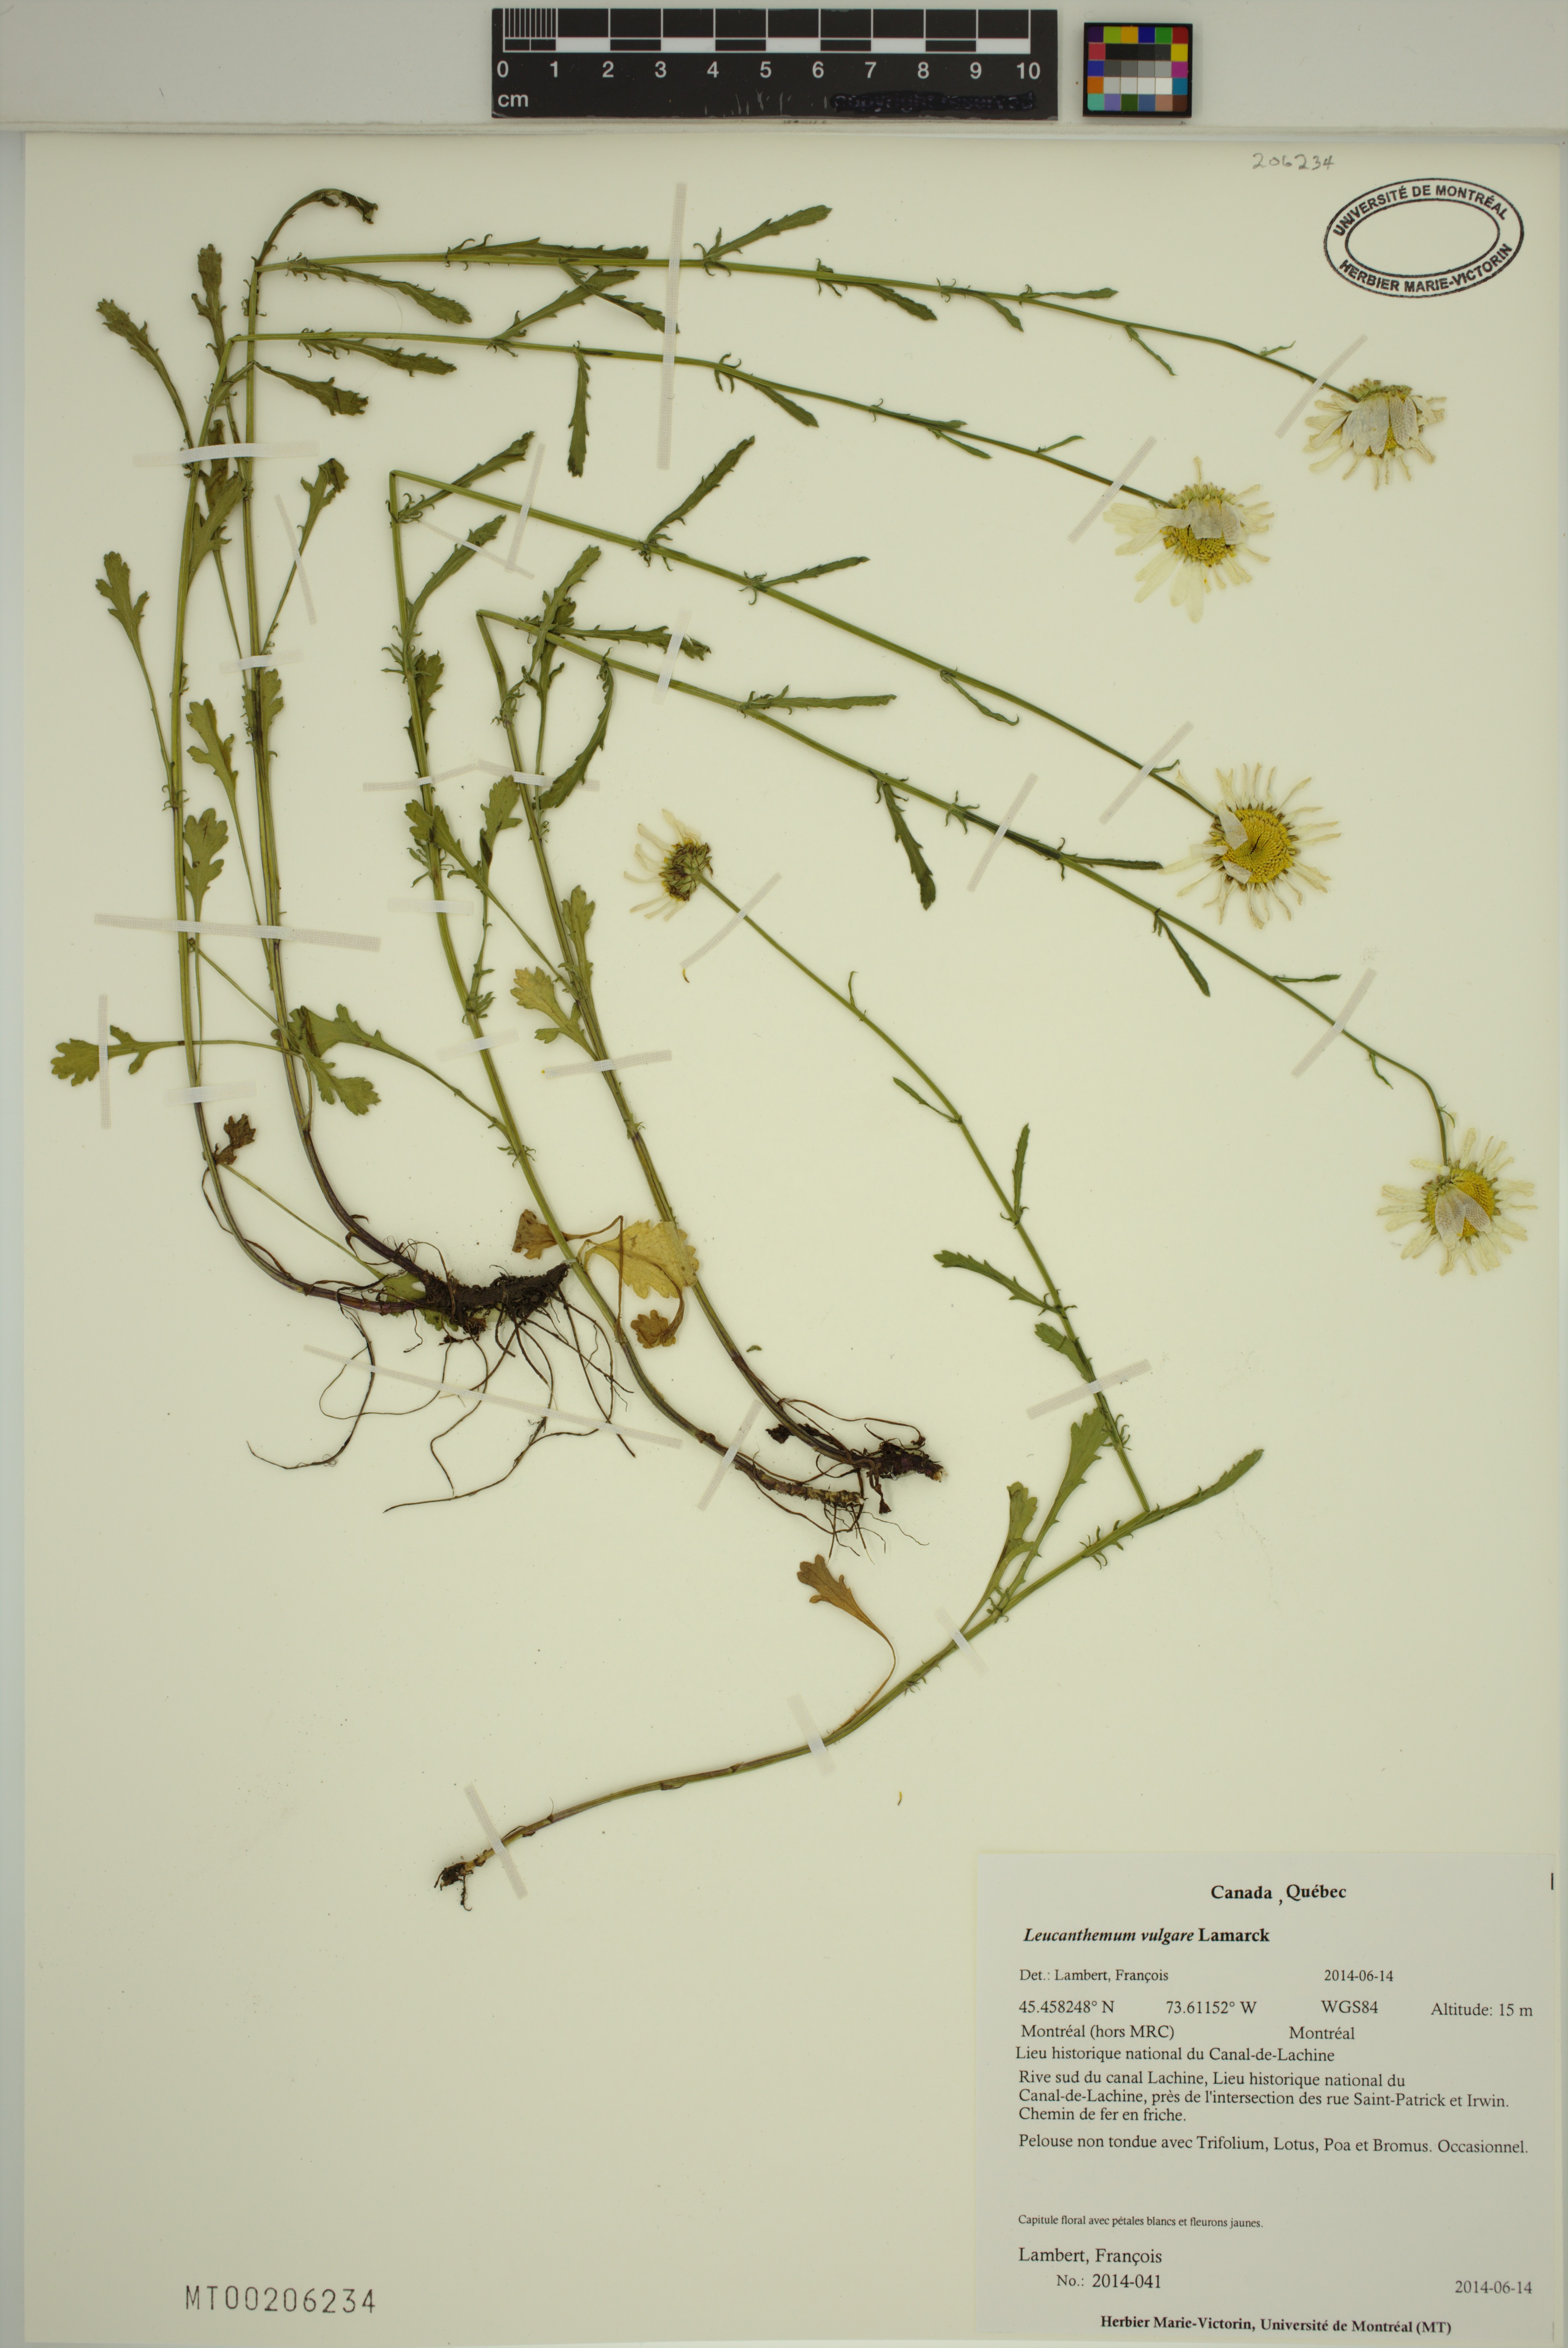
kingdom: Plantae
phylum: Tracheophyta
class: Magnoliopsida
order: Asterales
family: Asteraceae
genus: Leucanthemum
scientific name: Leucanthemum vulgare
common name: Oxeye daisy
